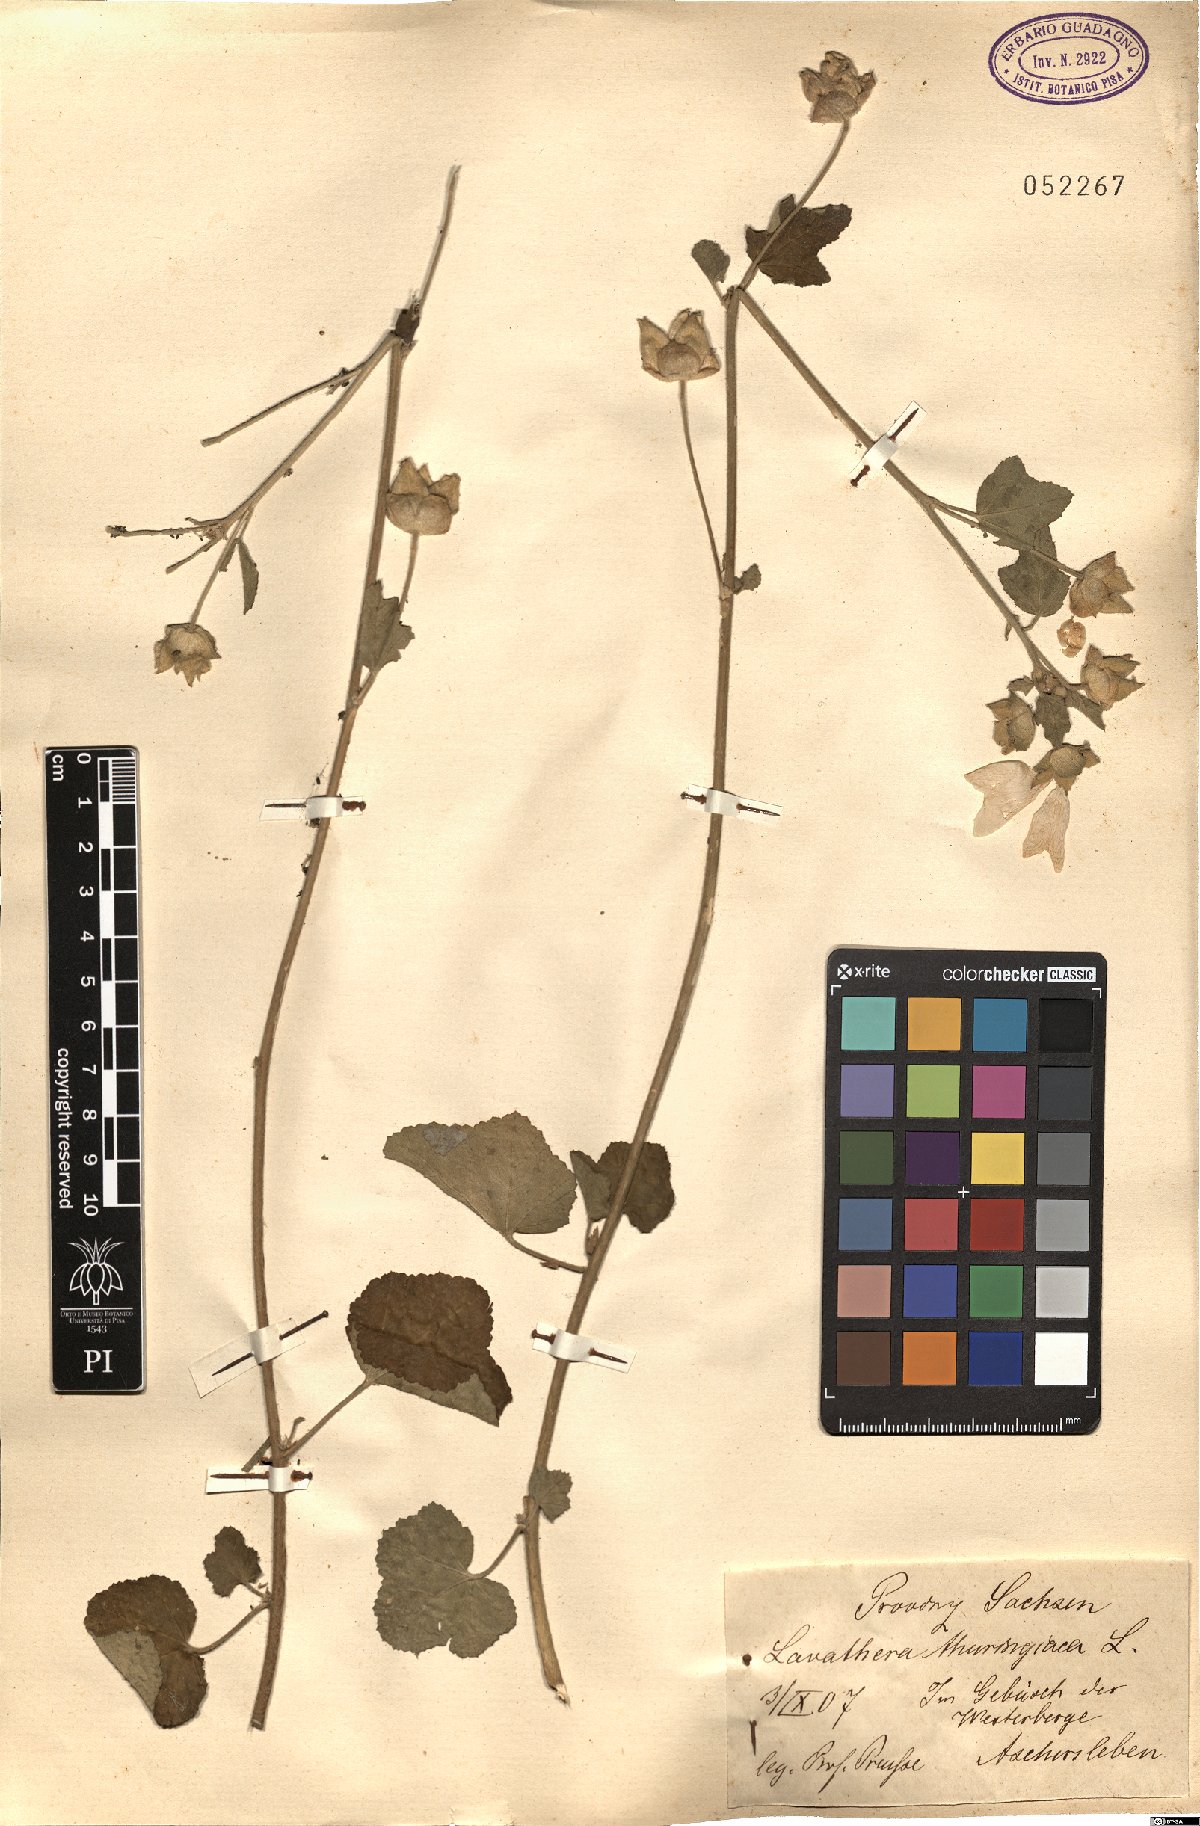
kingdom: Plantae
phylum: Tracheophyta
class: Magnoliopsida
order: Malvales
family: Malvaceae
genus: Malva
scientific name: Malva thuringiaca
